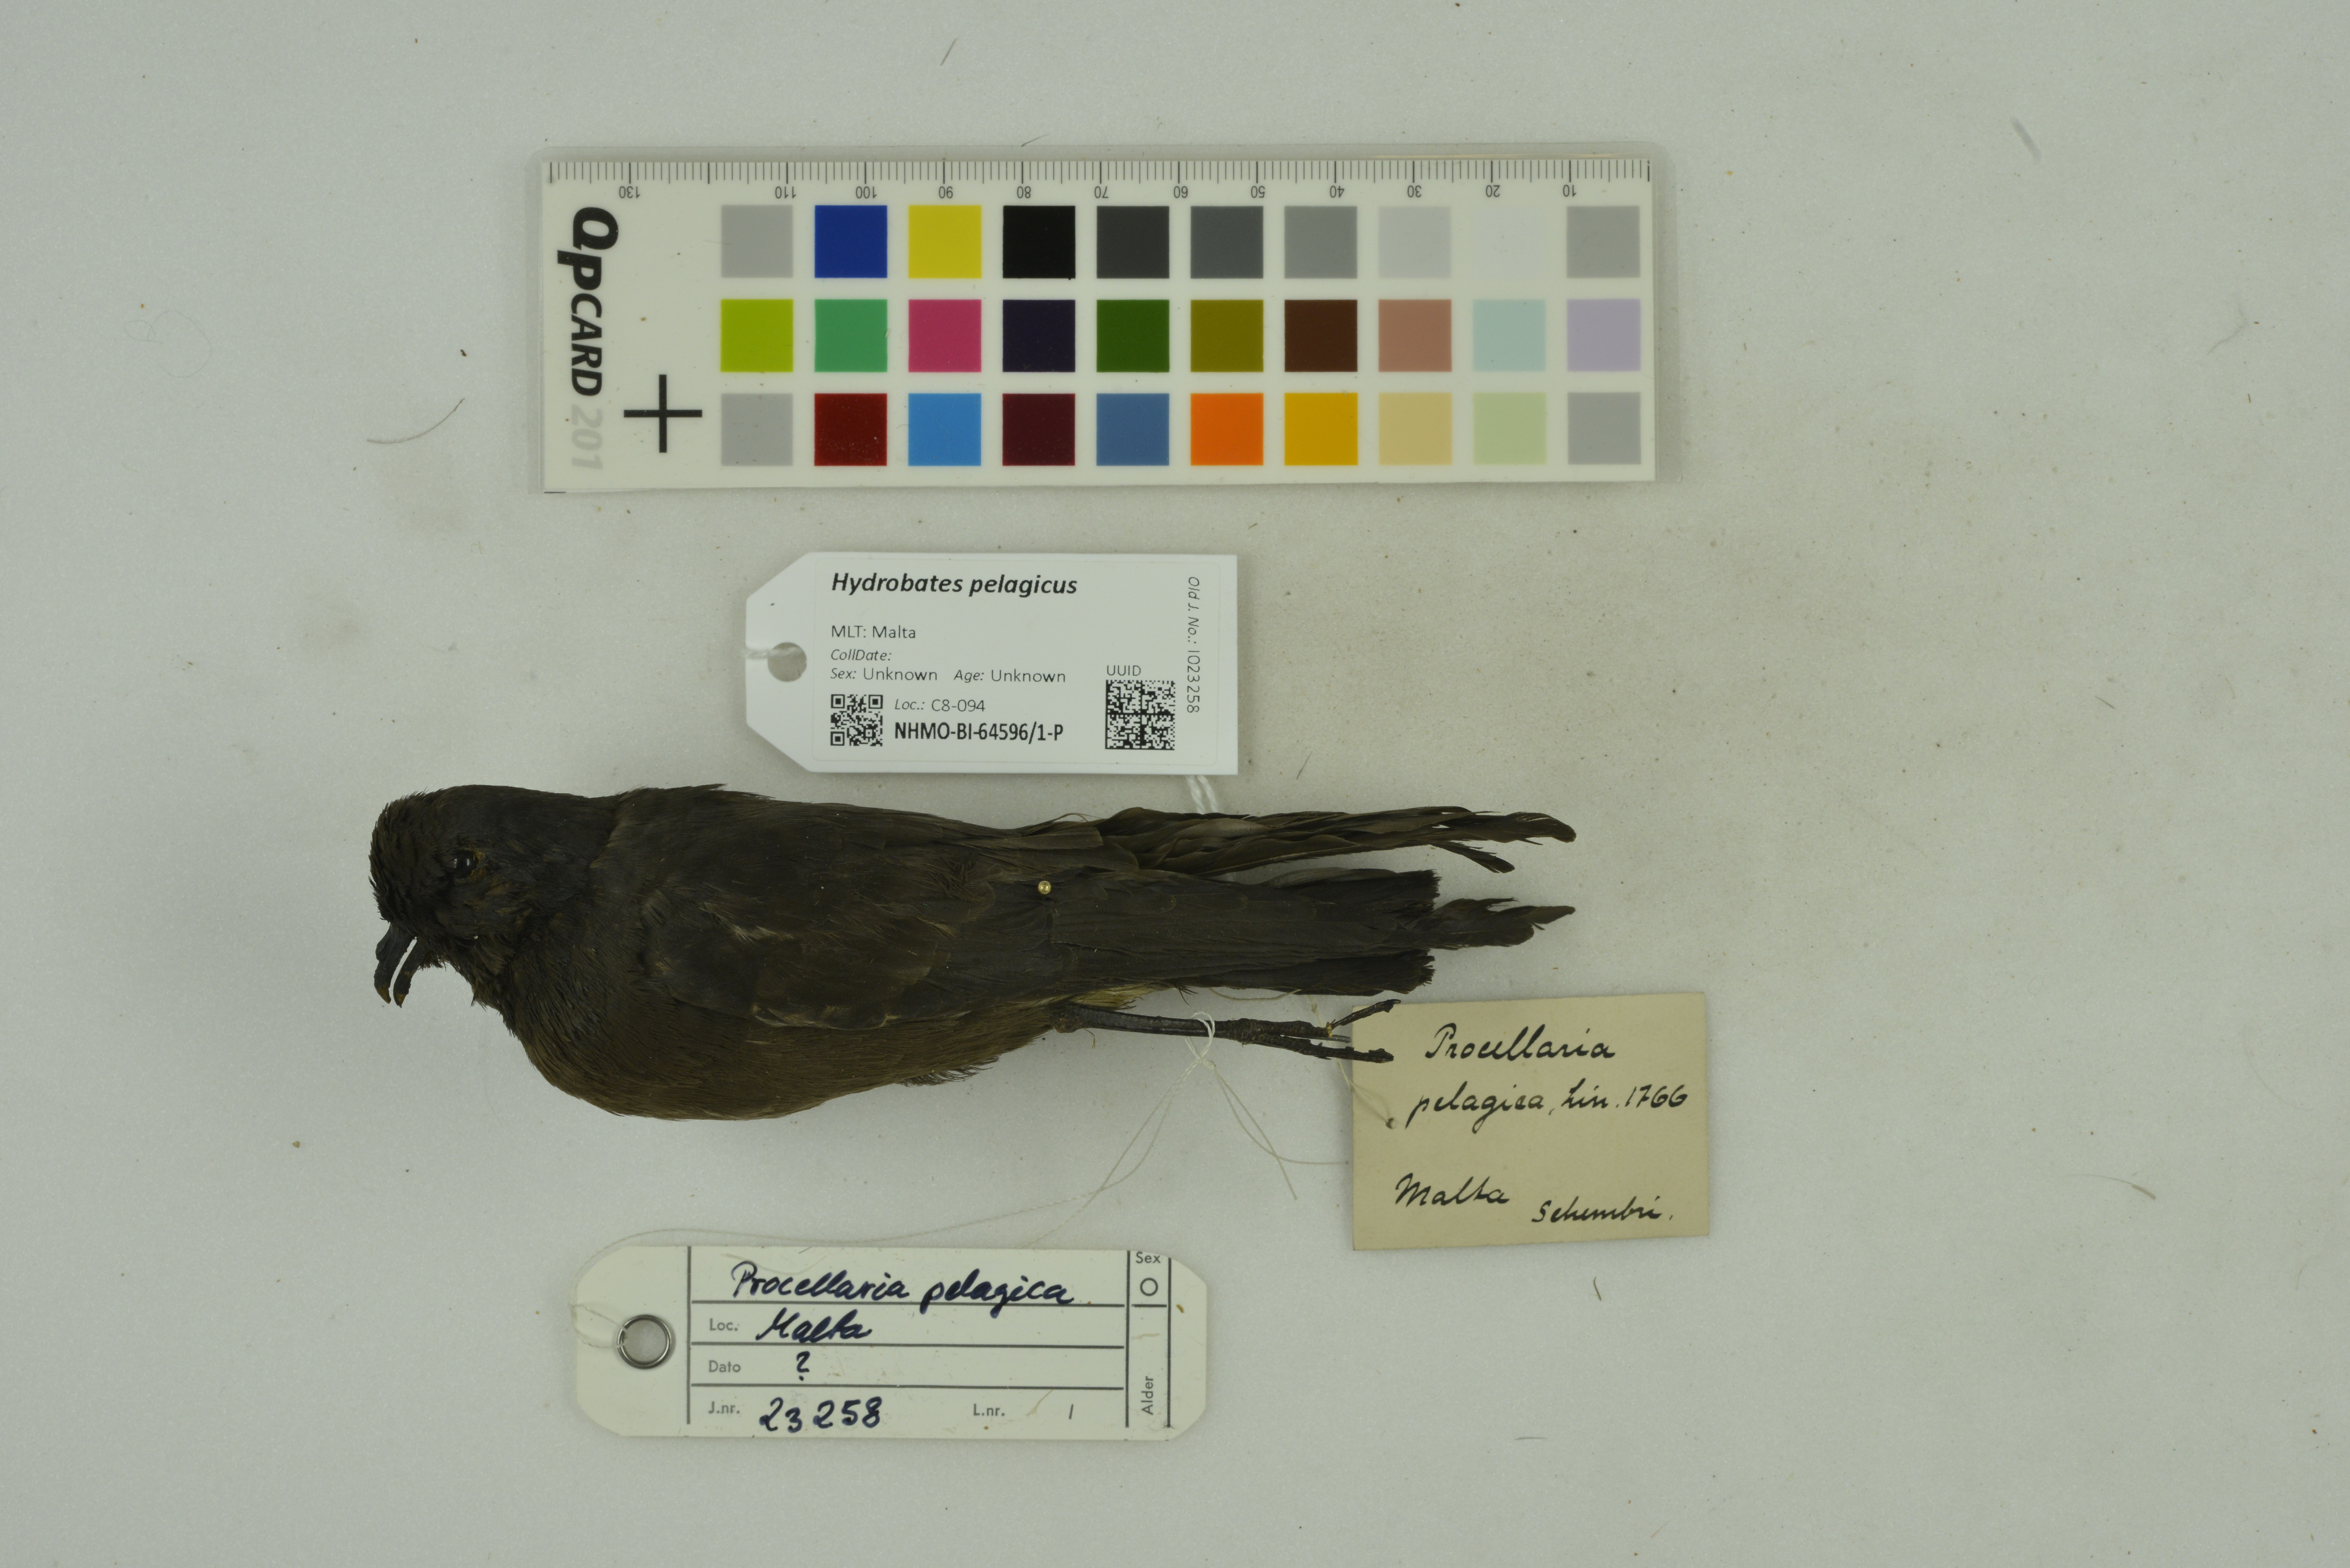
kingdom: Animalia
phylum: Chordata
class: Aves
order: Procellariiformes
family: Hydrobatidae
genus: Hydrobates
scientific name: Hydrobates pelagicus
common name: European storm-petrel
